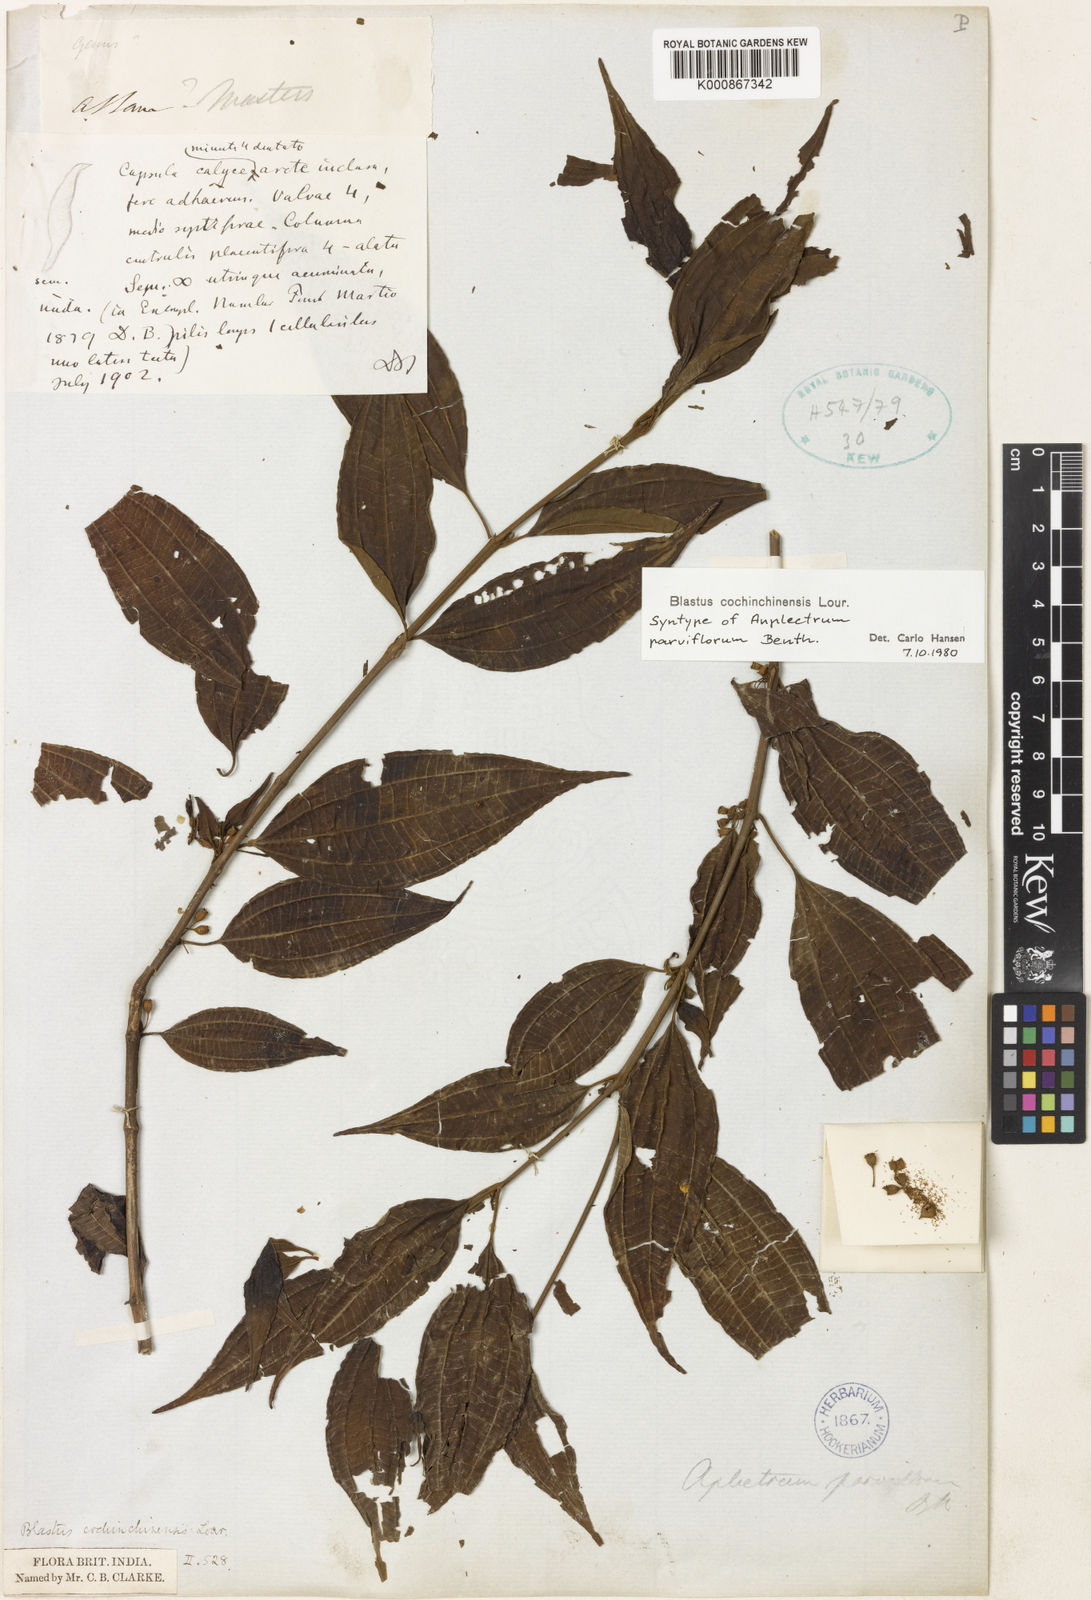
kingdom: Plantae
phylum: Tracheophyta
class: Magnoliopsida
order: Myrtales
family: Melastomataceae
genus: Blastus
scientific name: Blastus cochinchinensis
